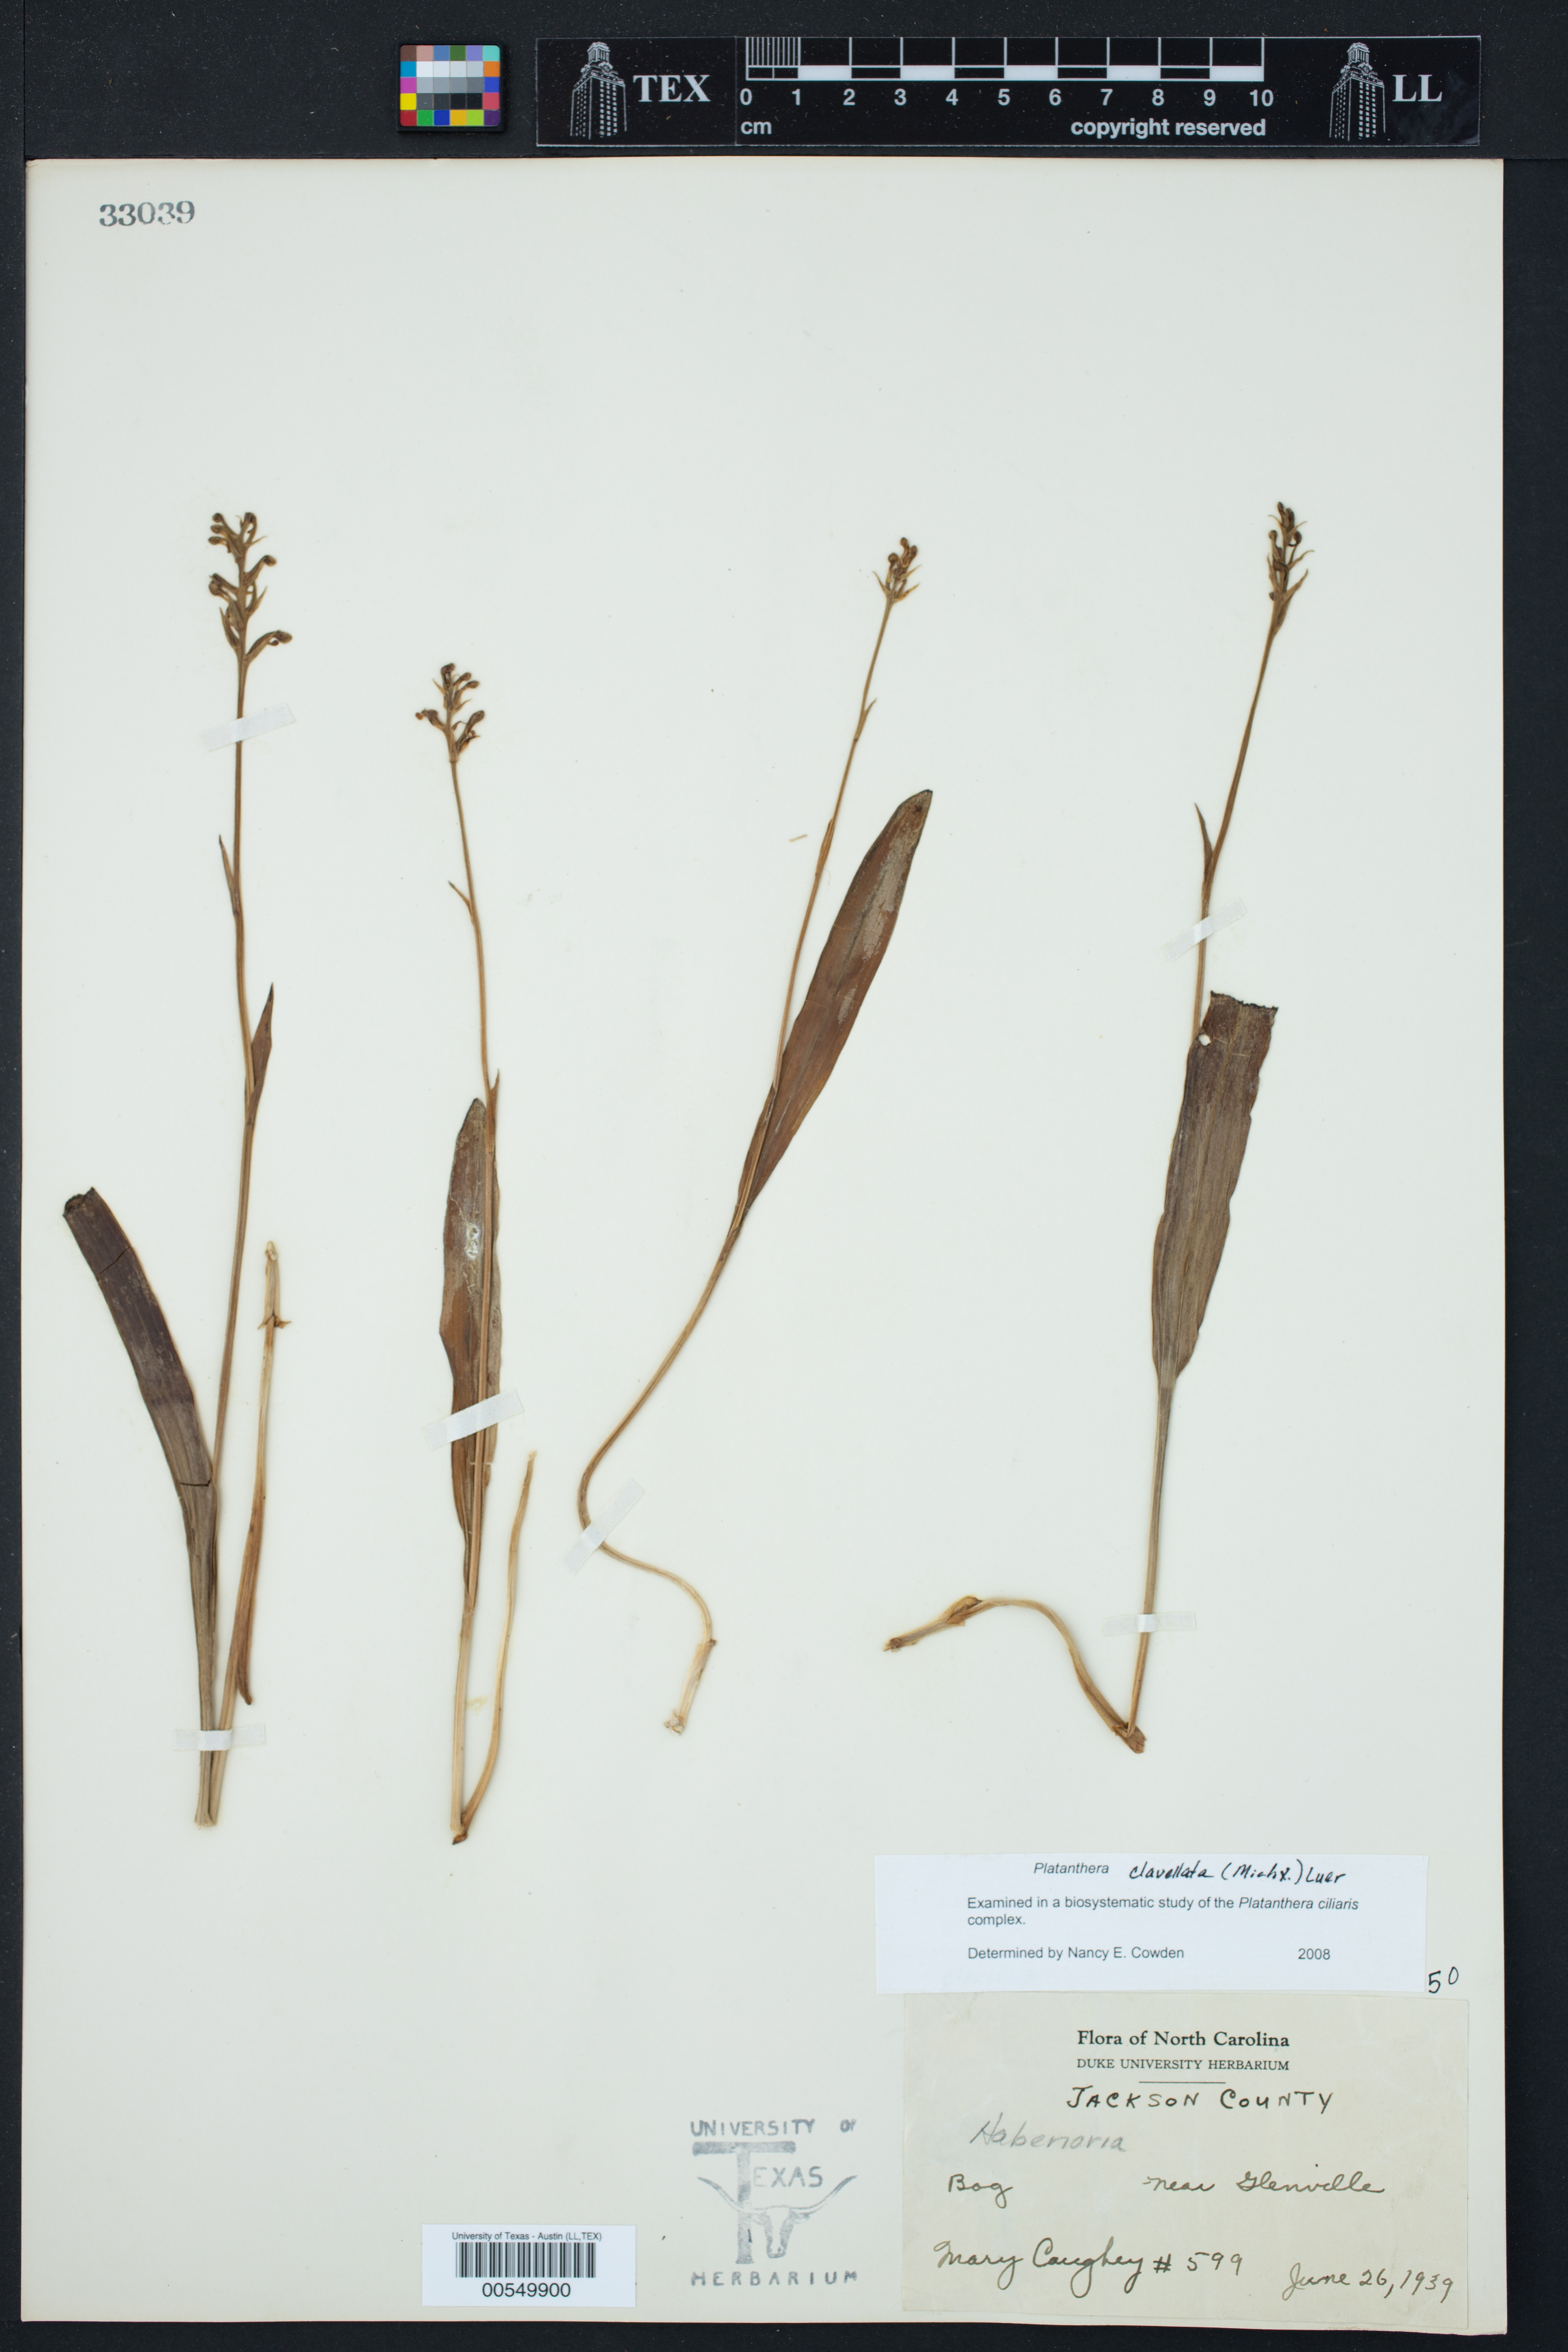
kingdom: Plantae
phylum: Tracheophyta
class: Liliopsida
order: Asparagales
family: Orchidaceae
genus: Platanthera
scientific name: Platanthera clavellata
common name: Club-spur orchid
